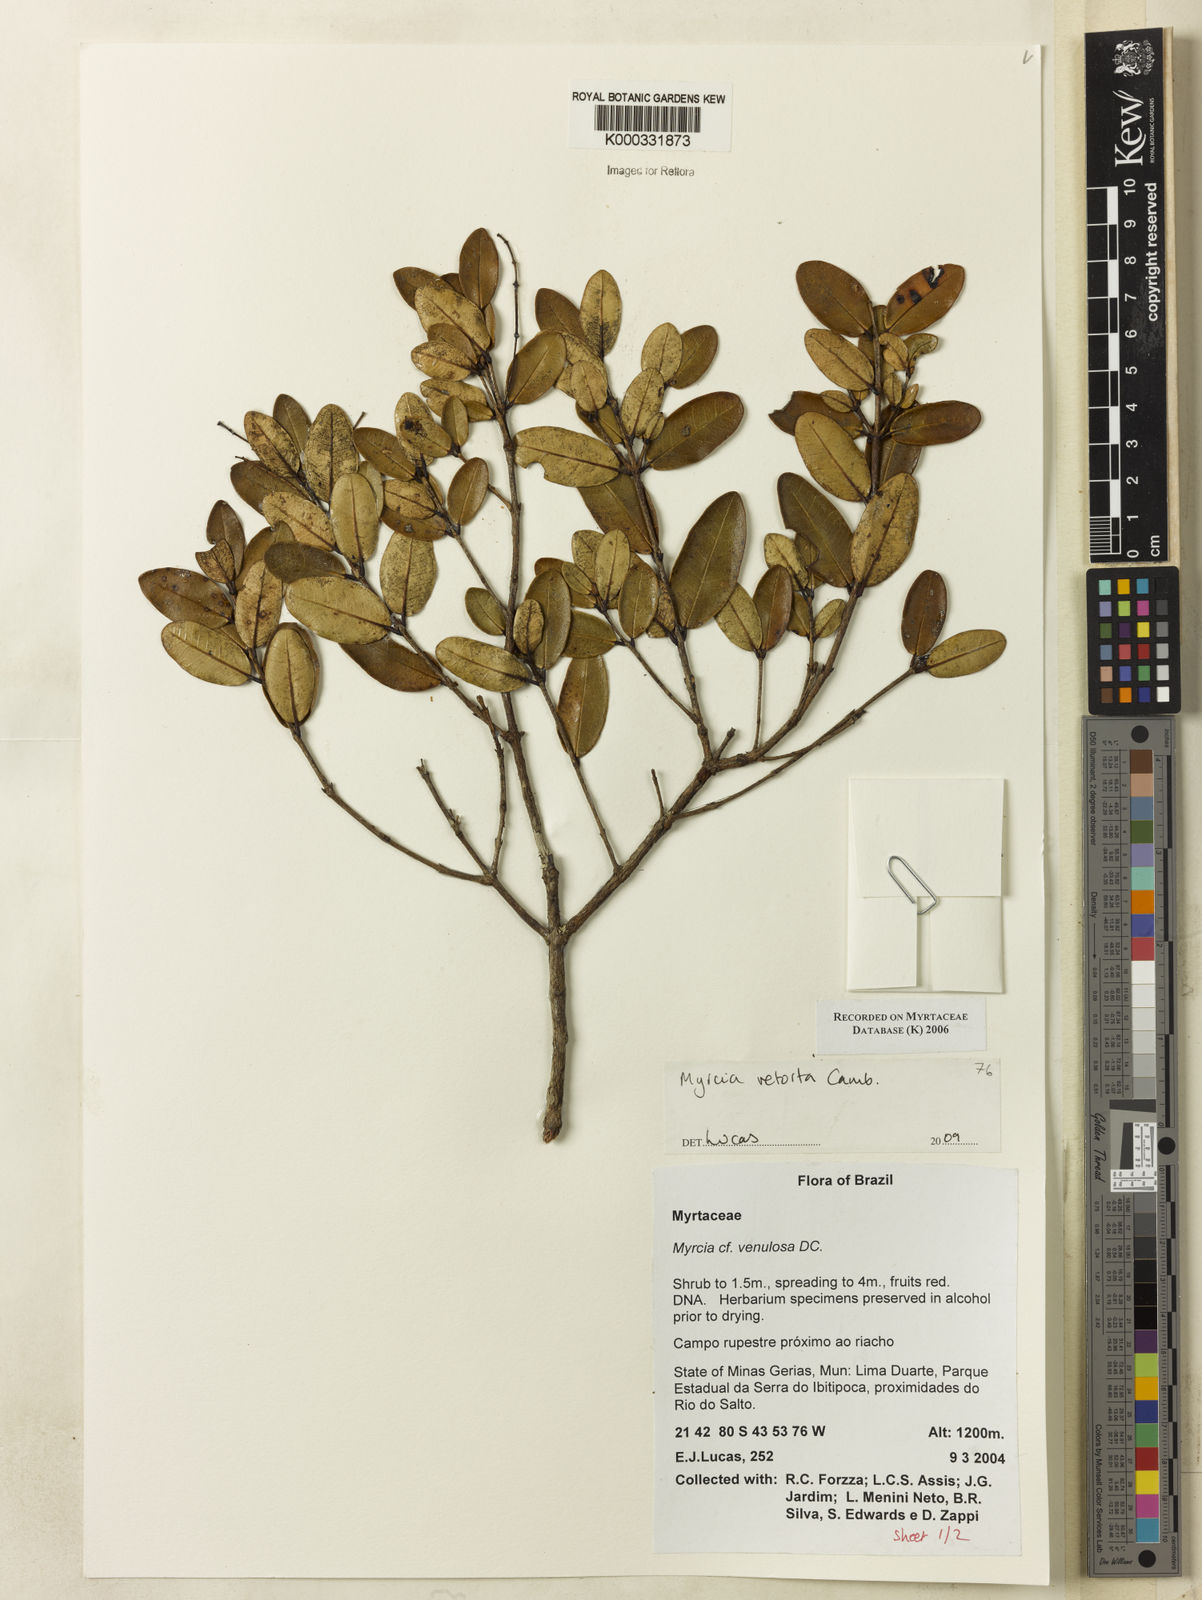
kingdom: Plantae
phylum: Tracheophyta
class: Magnoliopsida
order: Myrtales
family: Myrtaceae
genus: Myrcia
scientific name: Myrcia venulosa
